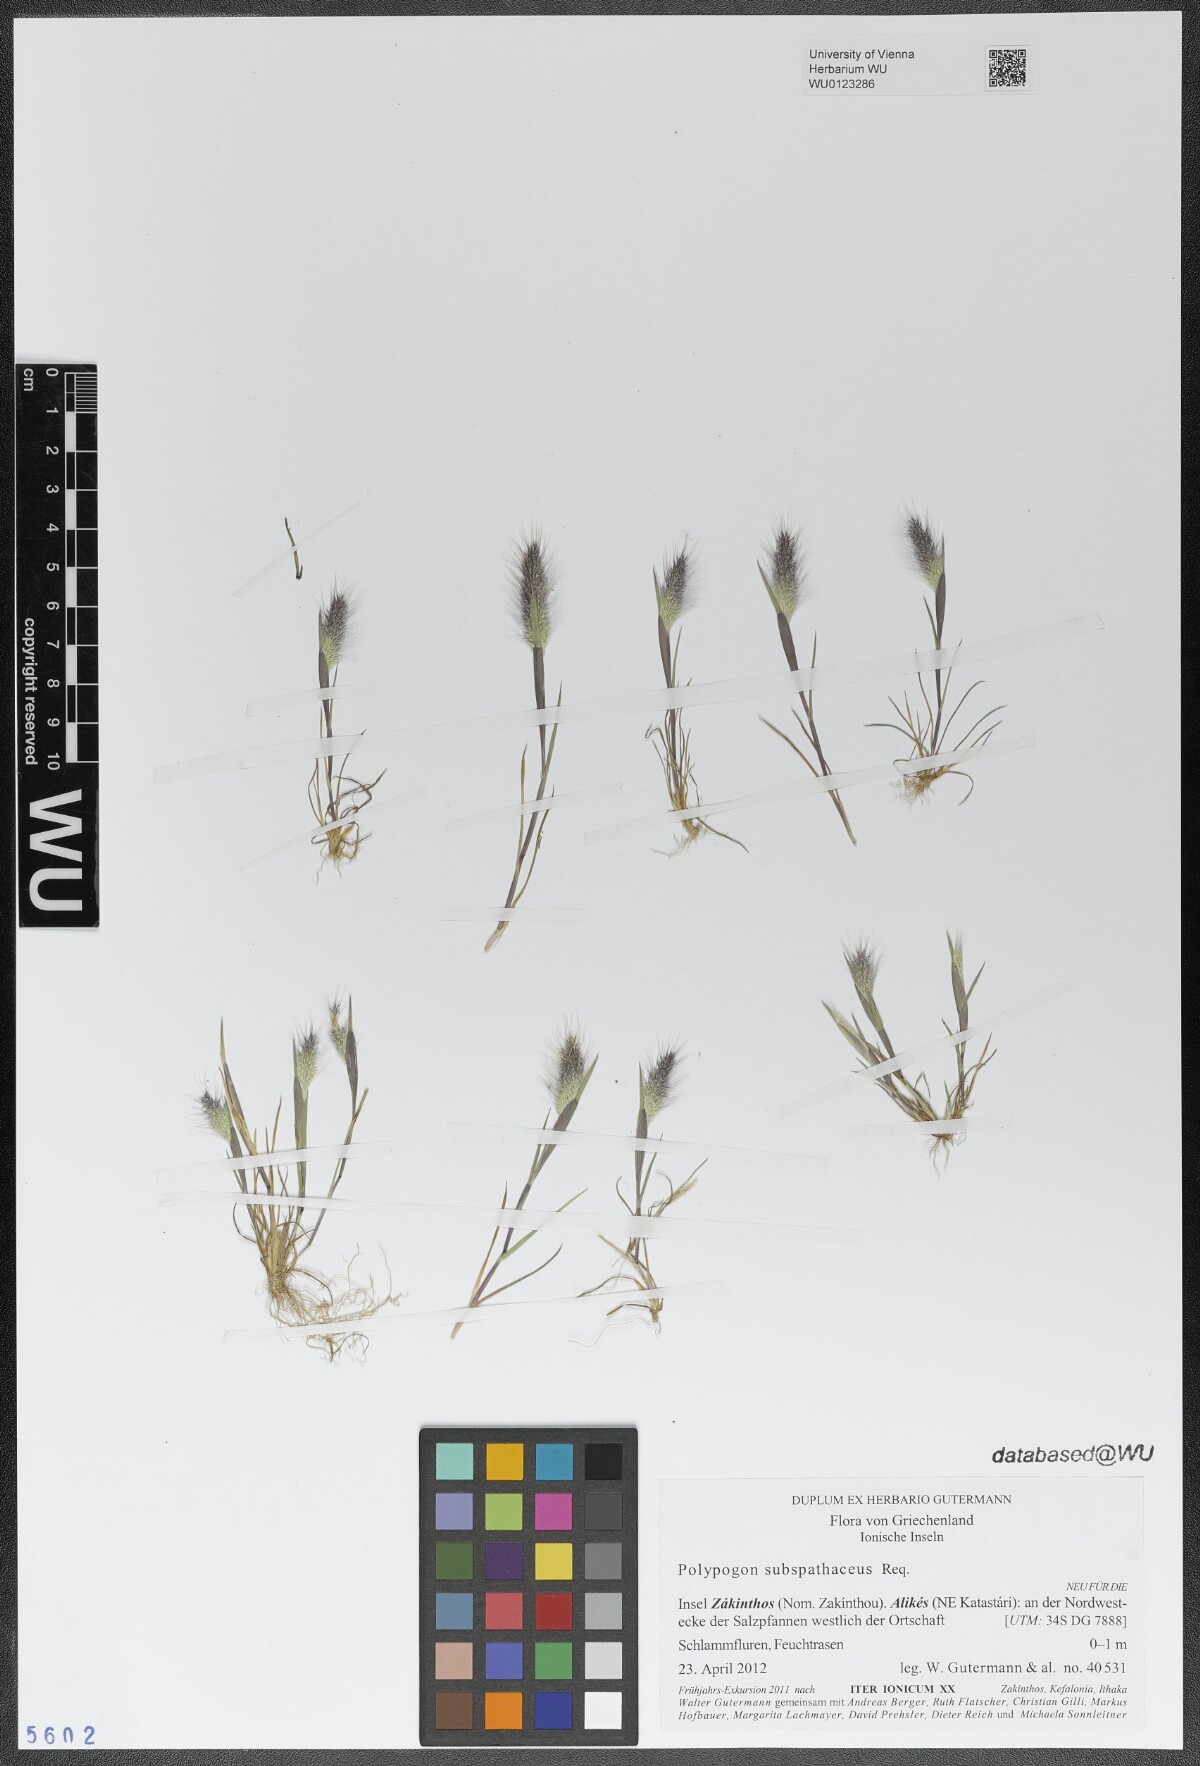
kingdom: Plantae
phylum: Tracheophyta
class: Liliopsida
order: Poales
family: Poaceae
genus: Polypogon
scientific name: Polypogon subspathaceus
